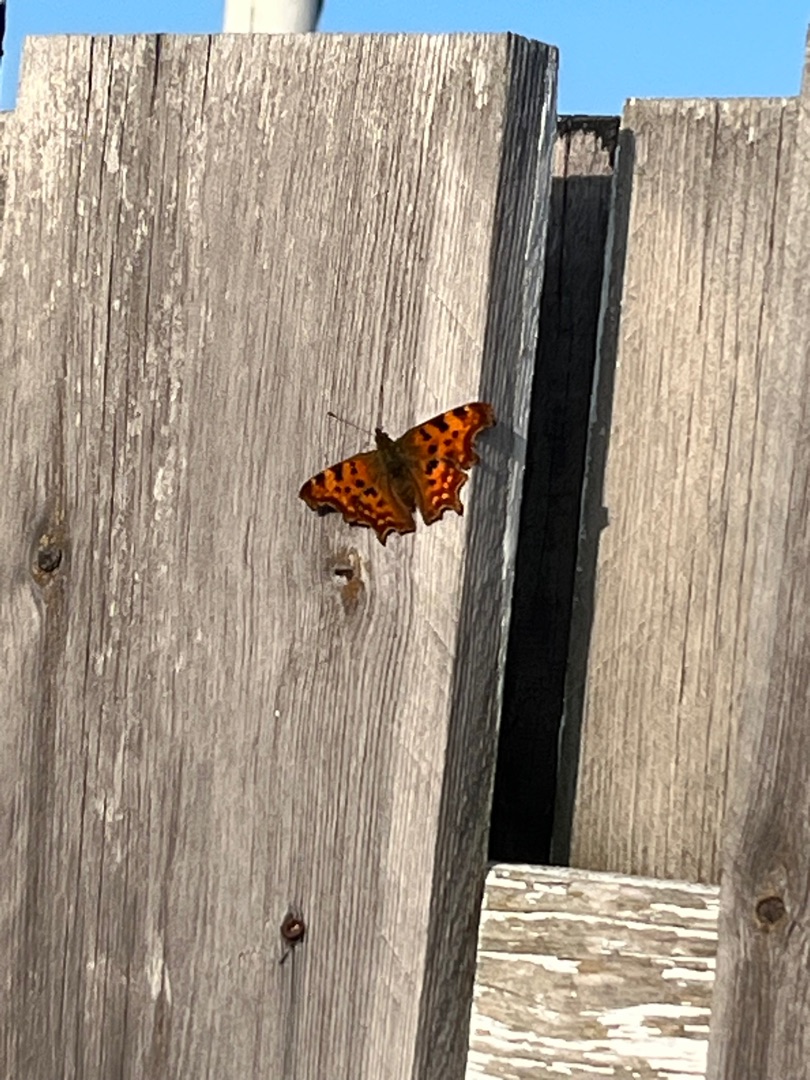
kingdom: Animalia
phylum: Arthropoda
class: Insecta
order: Lepidoptera
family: Nymphalidae
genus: Polygonia
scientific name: Polygonia c-album
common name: Det hvide C
